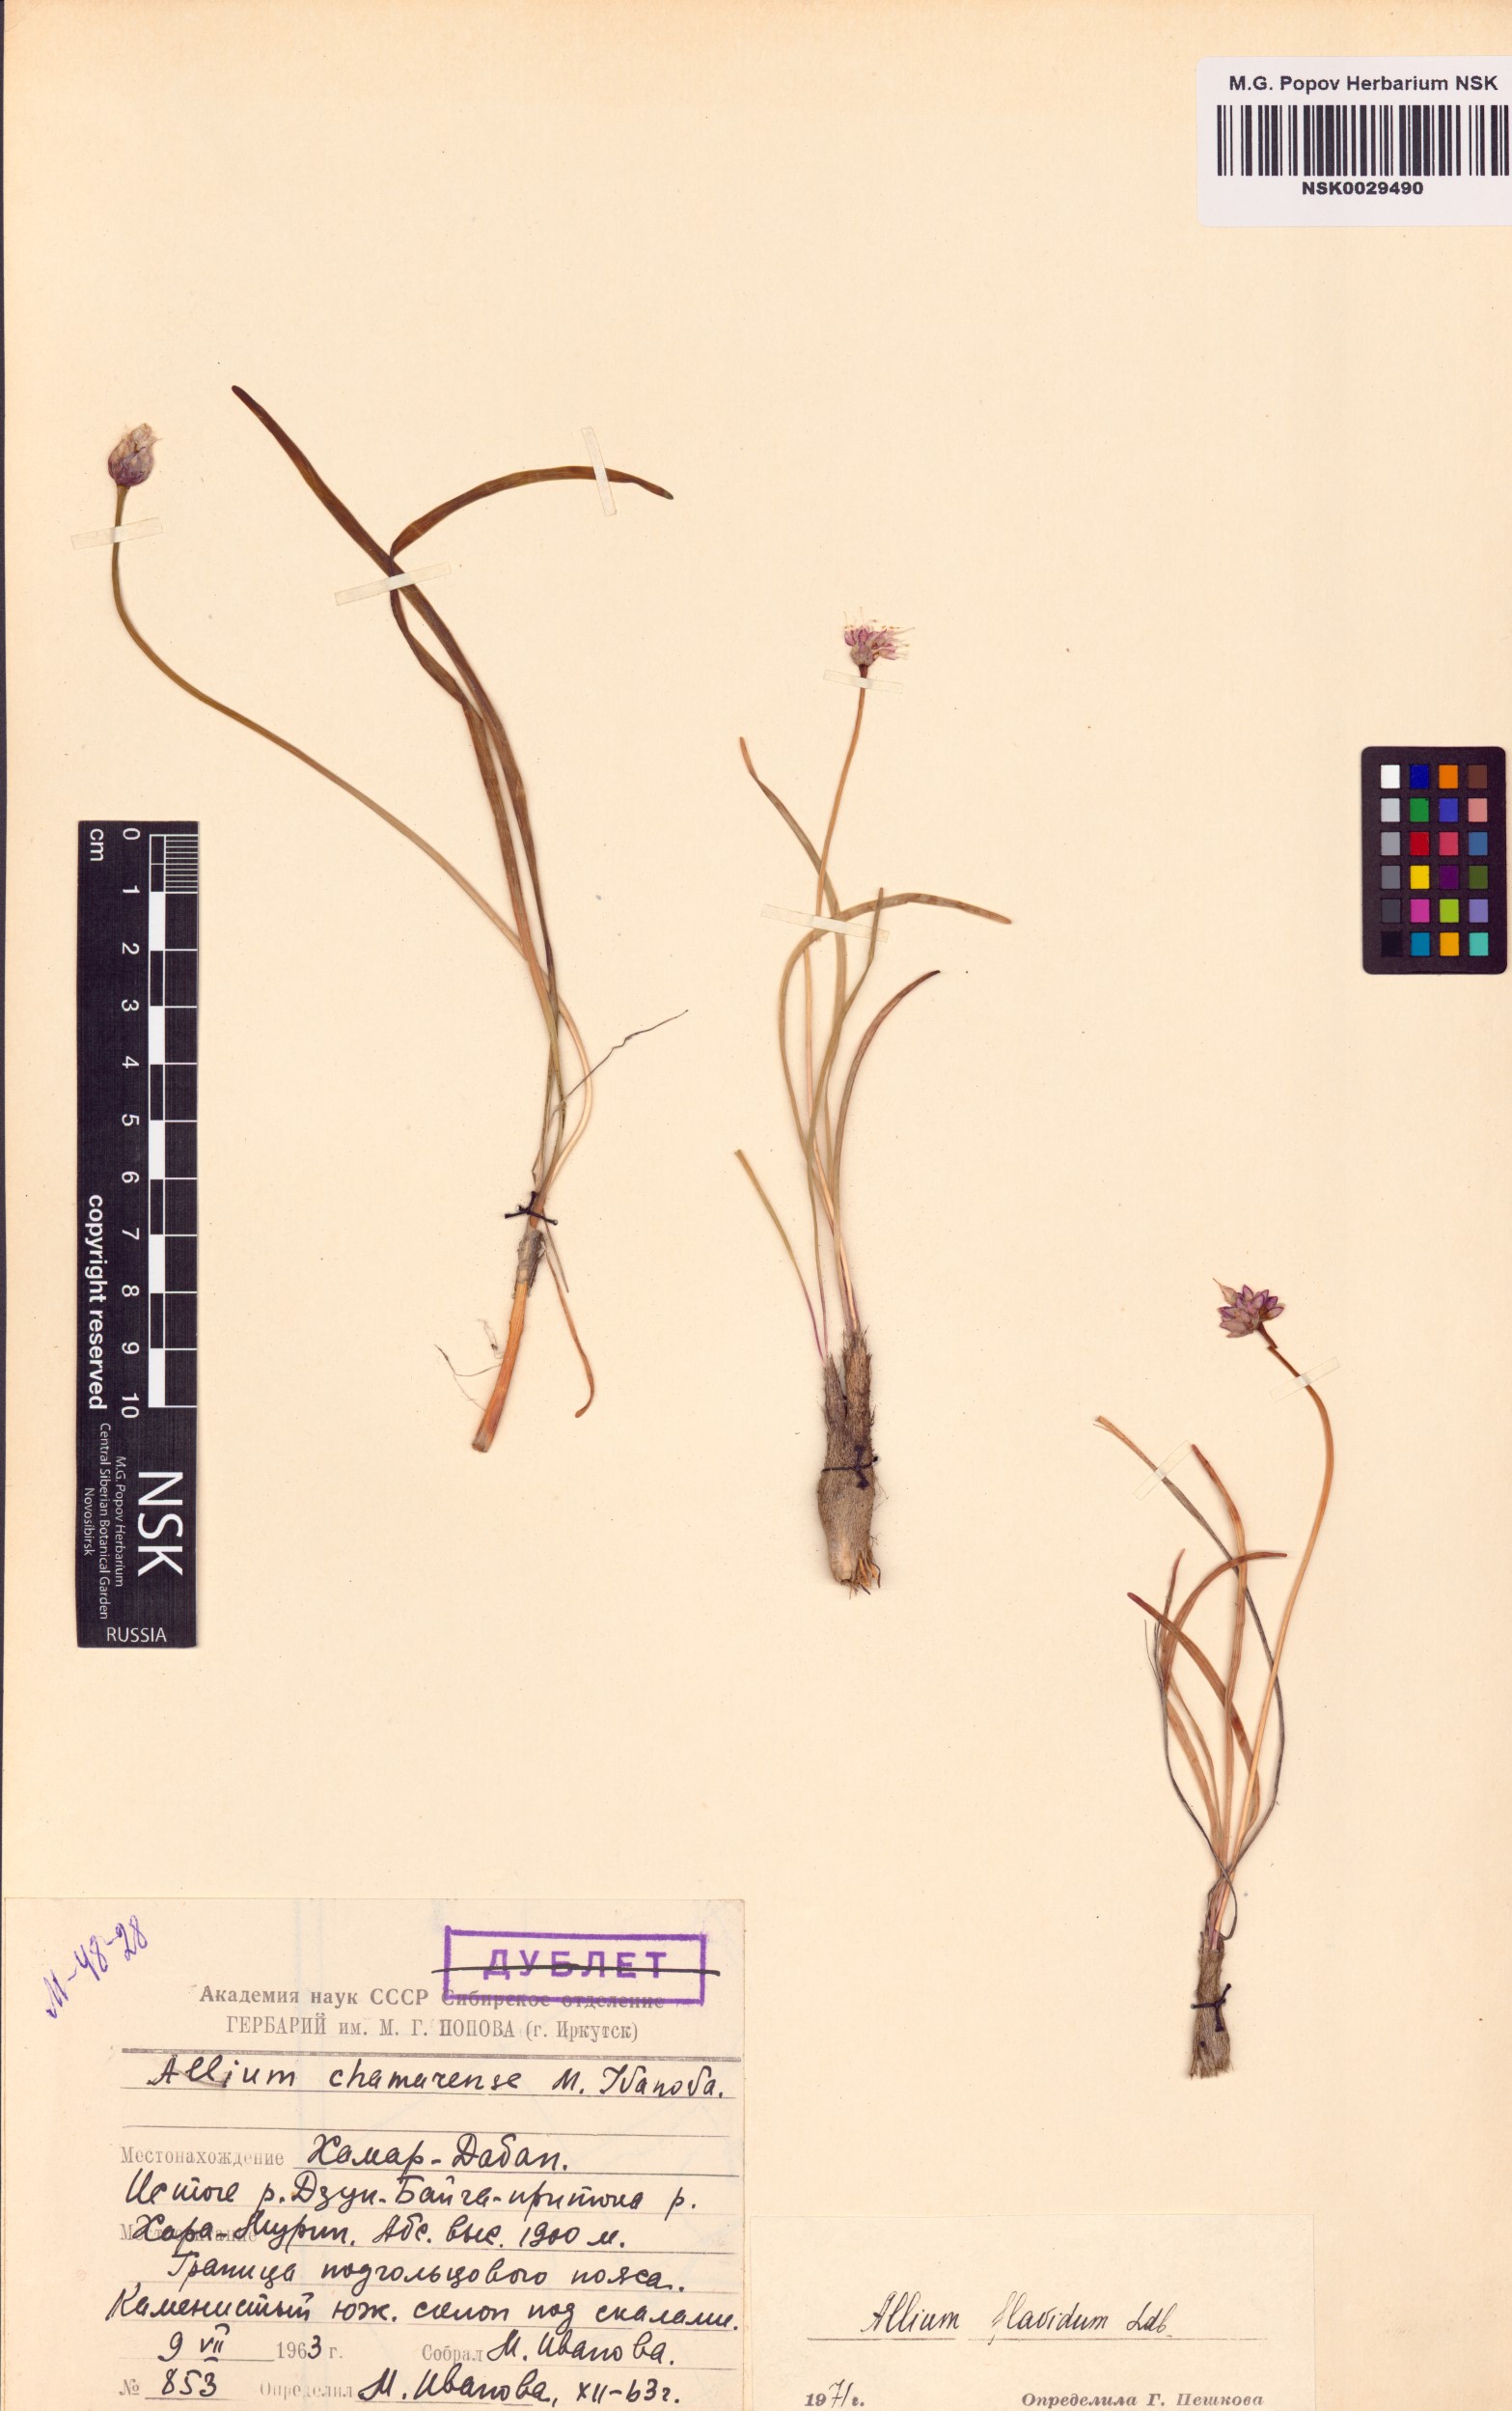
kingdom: Plantae
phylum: Tracheophyta
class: Liliopsida
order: Asparagales
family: Amaryllidaceae
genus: Allium
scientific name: Allium flavidum
